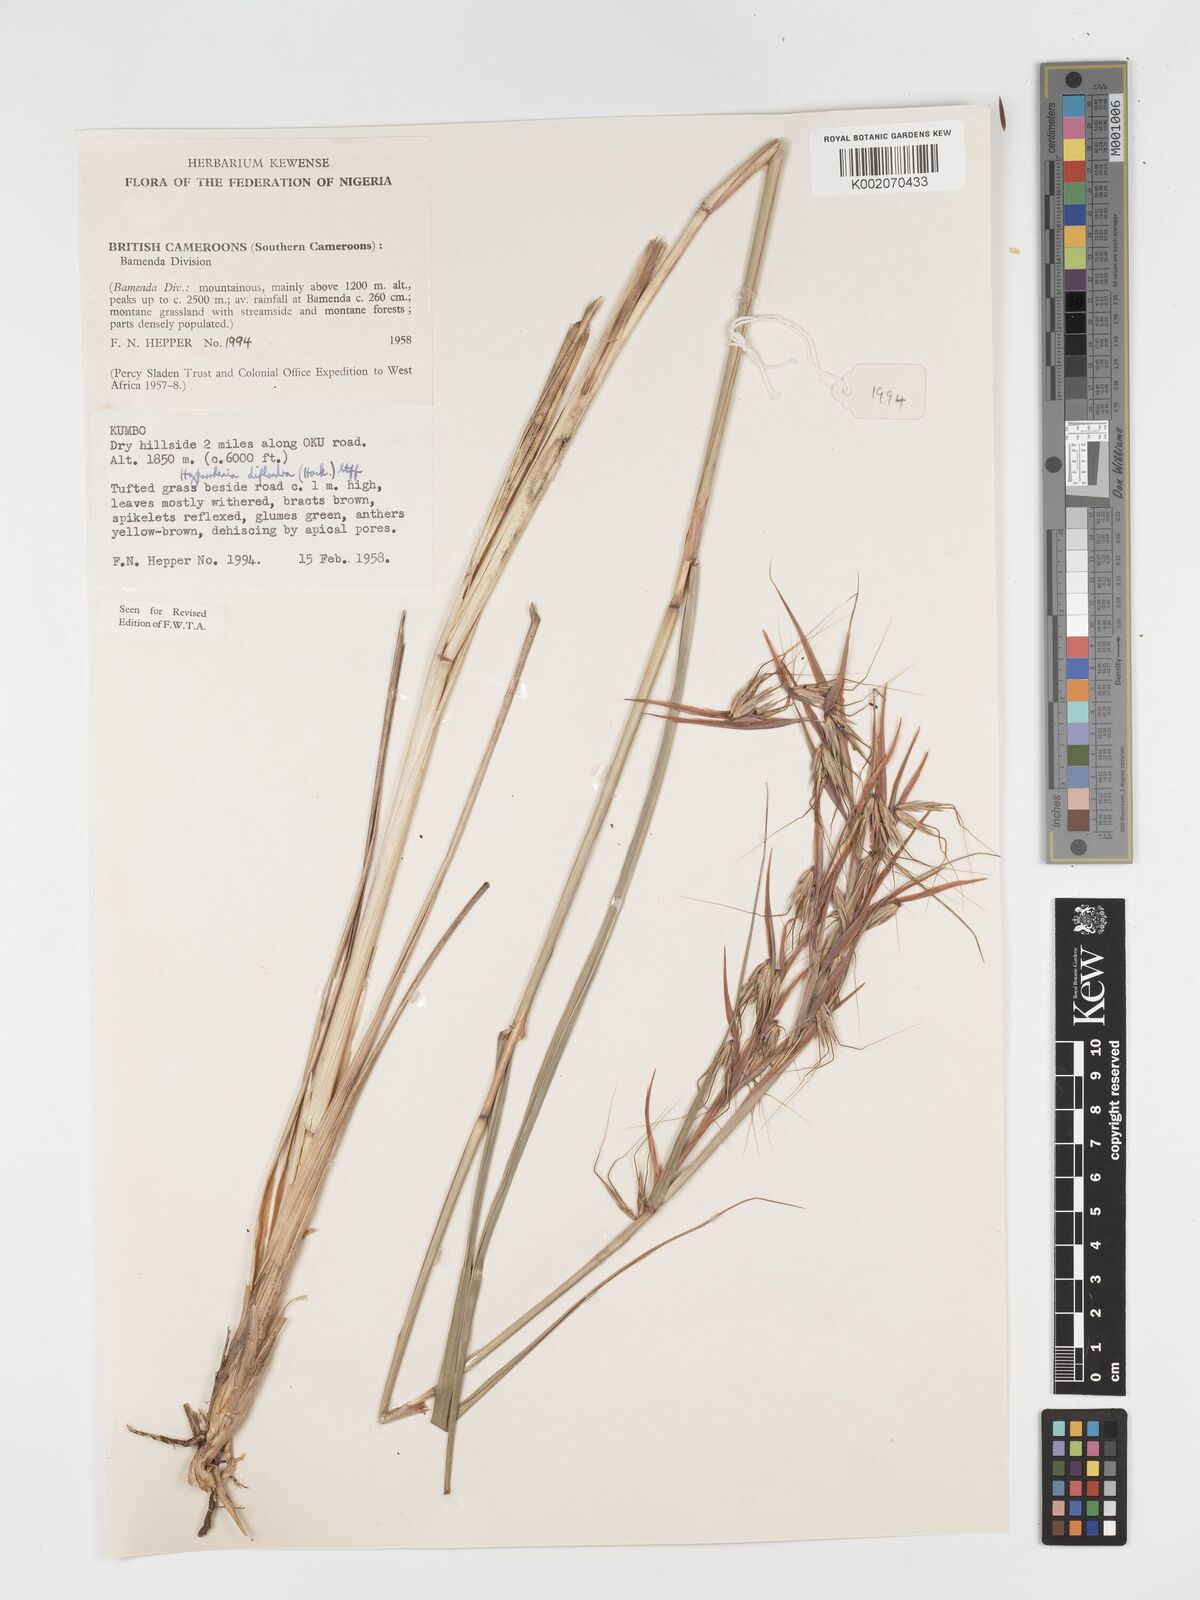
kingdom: Plantae
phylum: Tracheophyta
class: Liliopsida
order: Poales
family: Poaceae
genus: Hyparrhenia
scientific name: Hyparrhenia diplandra
